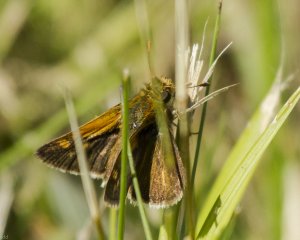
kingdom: Animalia
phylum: Arthropoda
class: Insecta
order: Lepidoptera
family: Hesperiidae
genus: Polites
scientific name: Polites themistocles
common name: Tawny-edged Skipper
